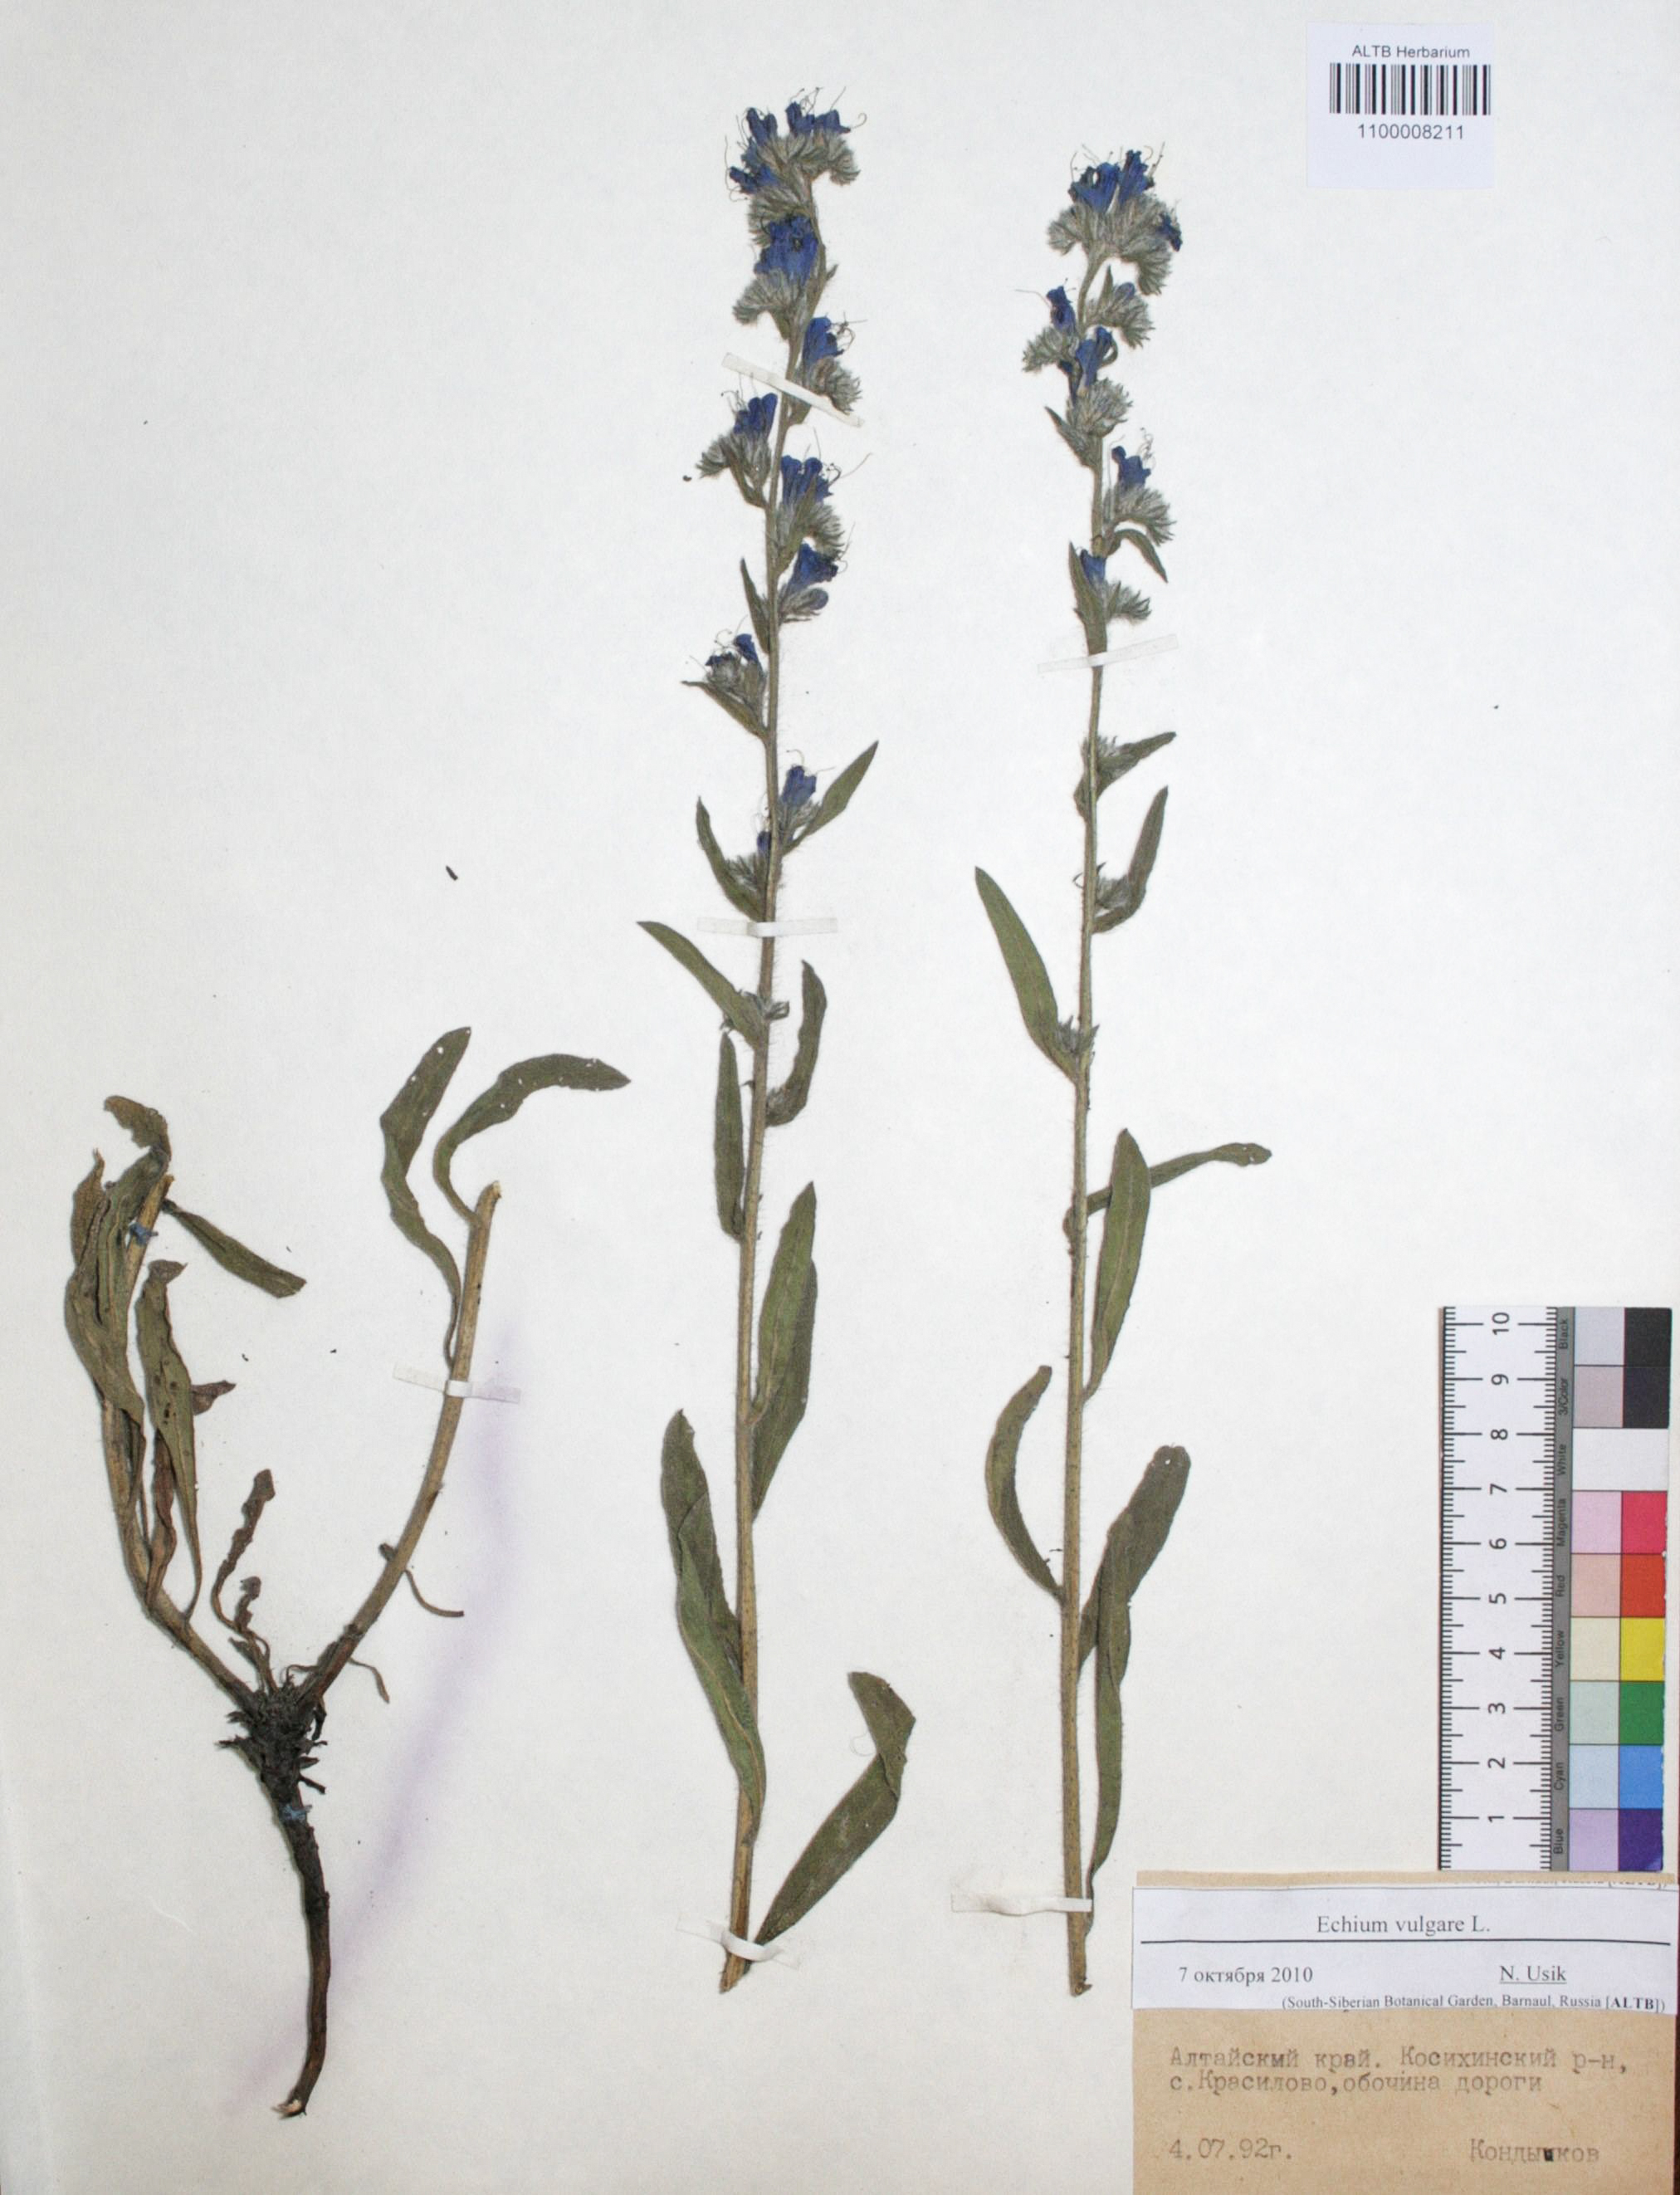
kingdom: Plantae
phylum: Tracheophyta
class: Magnoliopsida
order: Boraginales
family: Boraginaceae
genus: Echium
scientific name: Echium vulgare
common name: Common viper's bugloss
